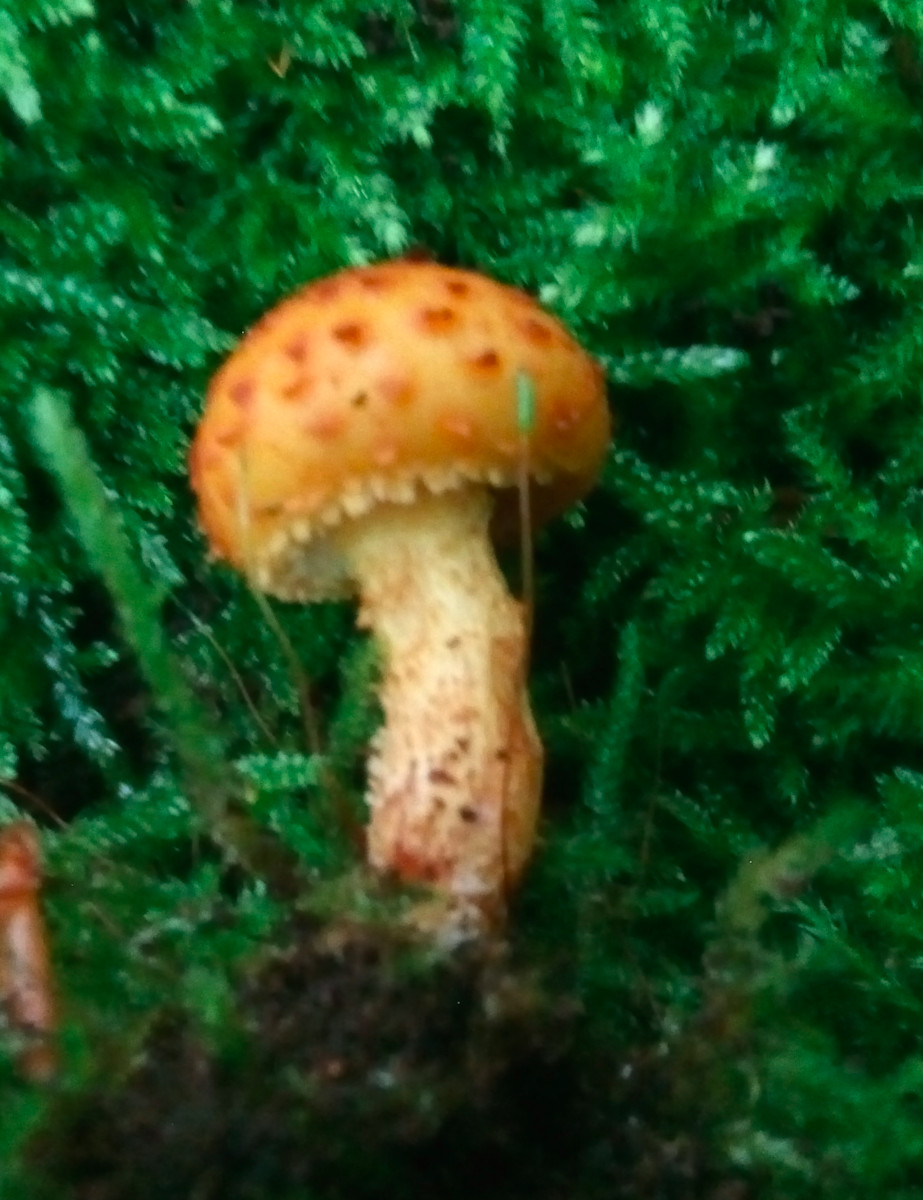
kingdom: Fungi
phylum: Basidiomycota
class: Agaricomycetes
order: Agaricales
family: Strophariaceae
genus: Pholiota
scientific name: Pholiota
